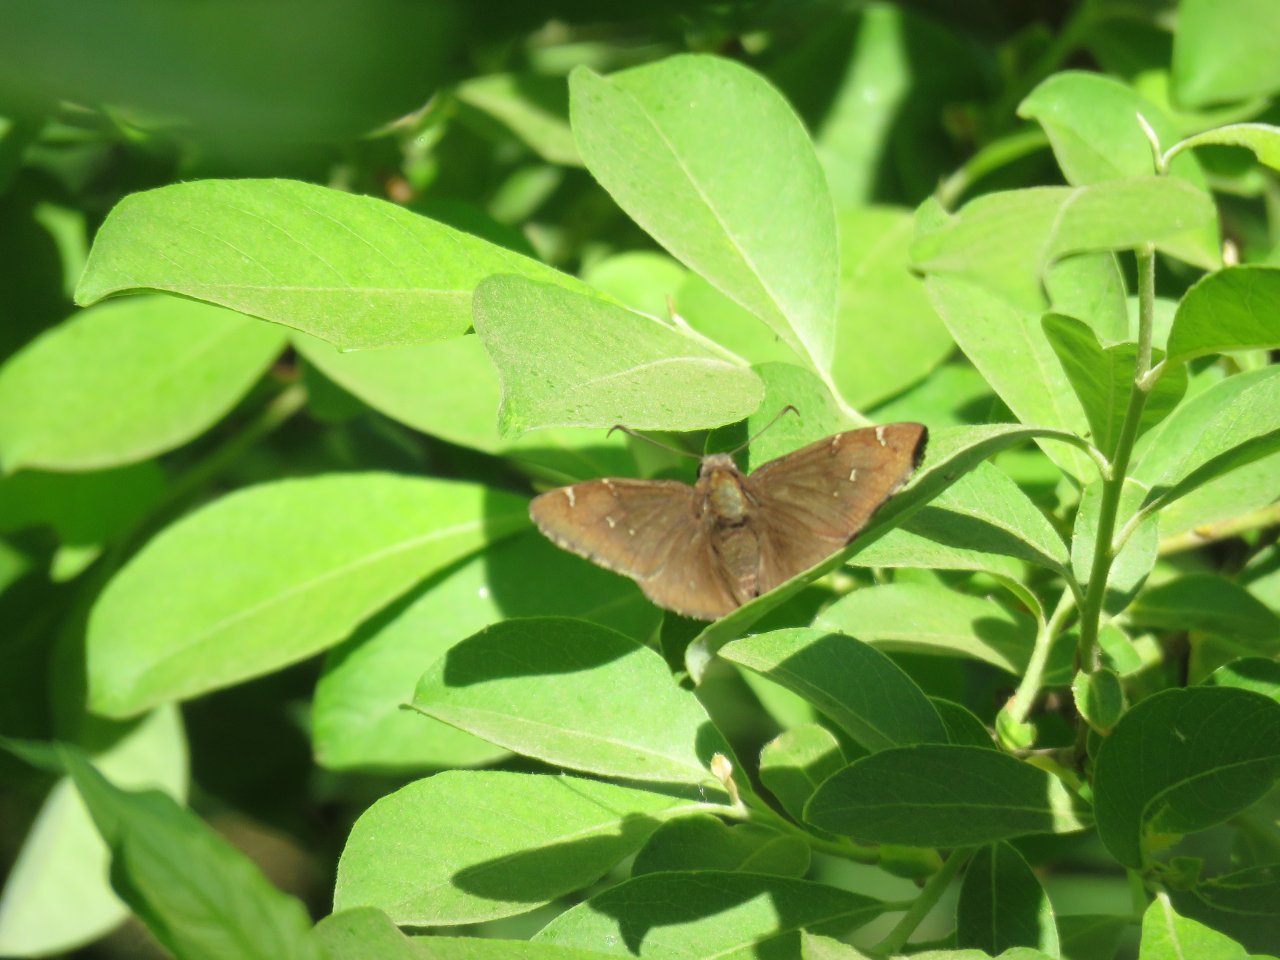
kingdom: Animalia
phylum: Arthropoda
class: Insecta
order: Lepidoptera
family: Hesperiidae
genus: Autochton
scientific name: Autochton
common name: Northern Cloudywing
